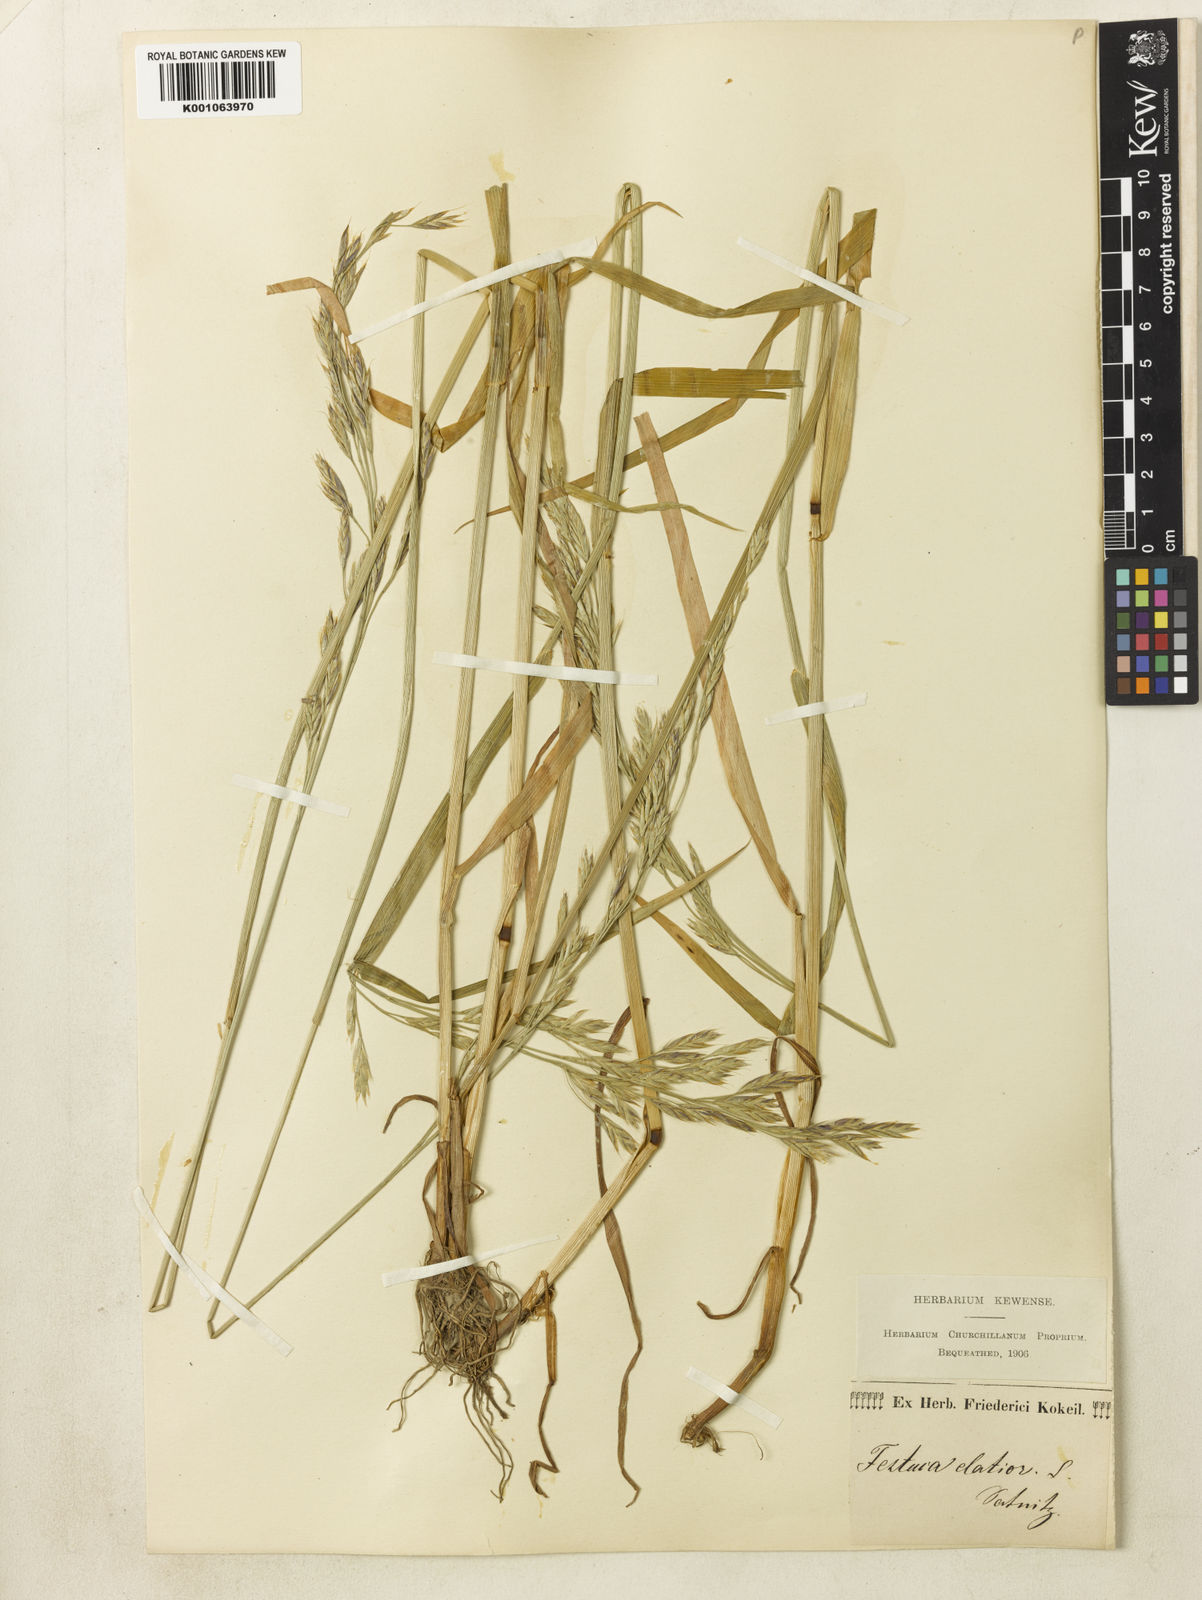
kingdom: Plantae
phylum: Tracheophyta
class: Liliopsida
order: Poales
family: Poaceae
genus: Lolium
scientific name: Lolium arundinaceum
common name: Reed fescue
